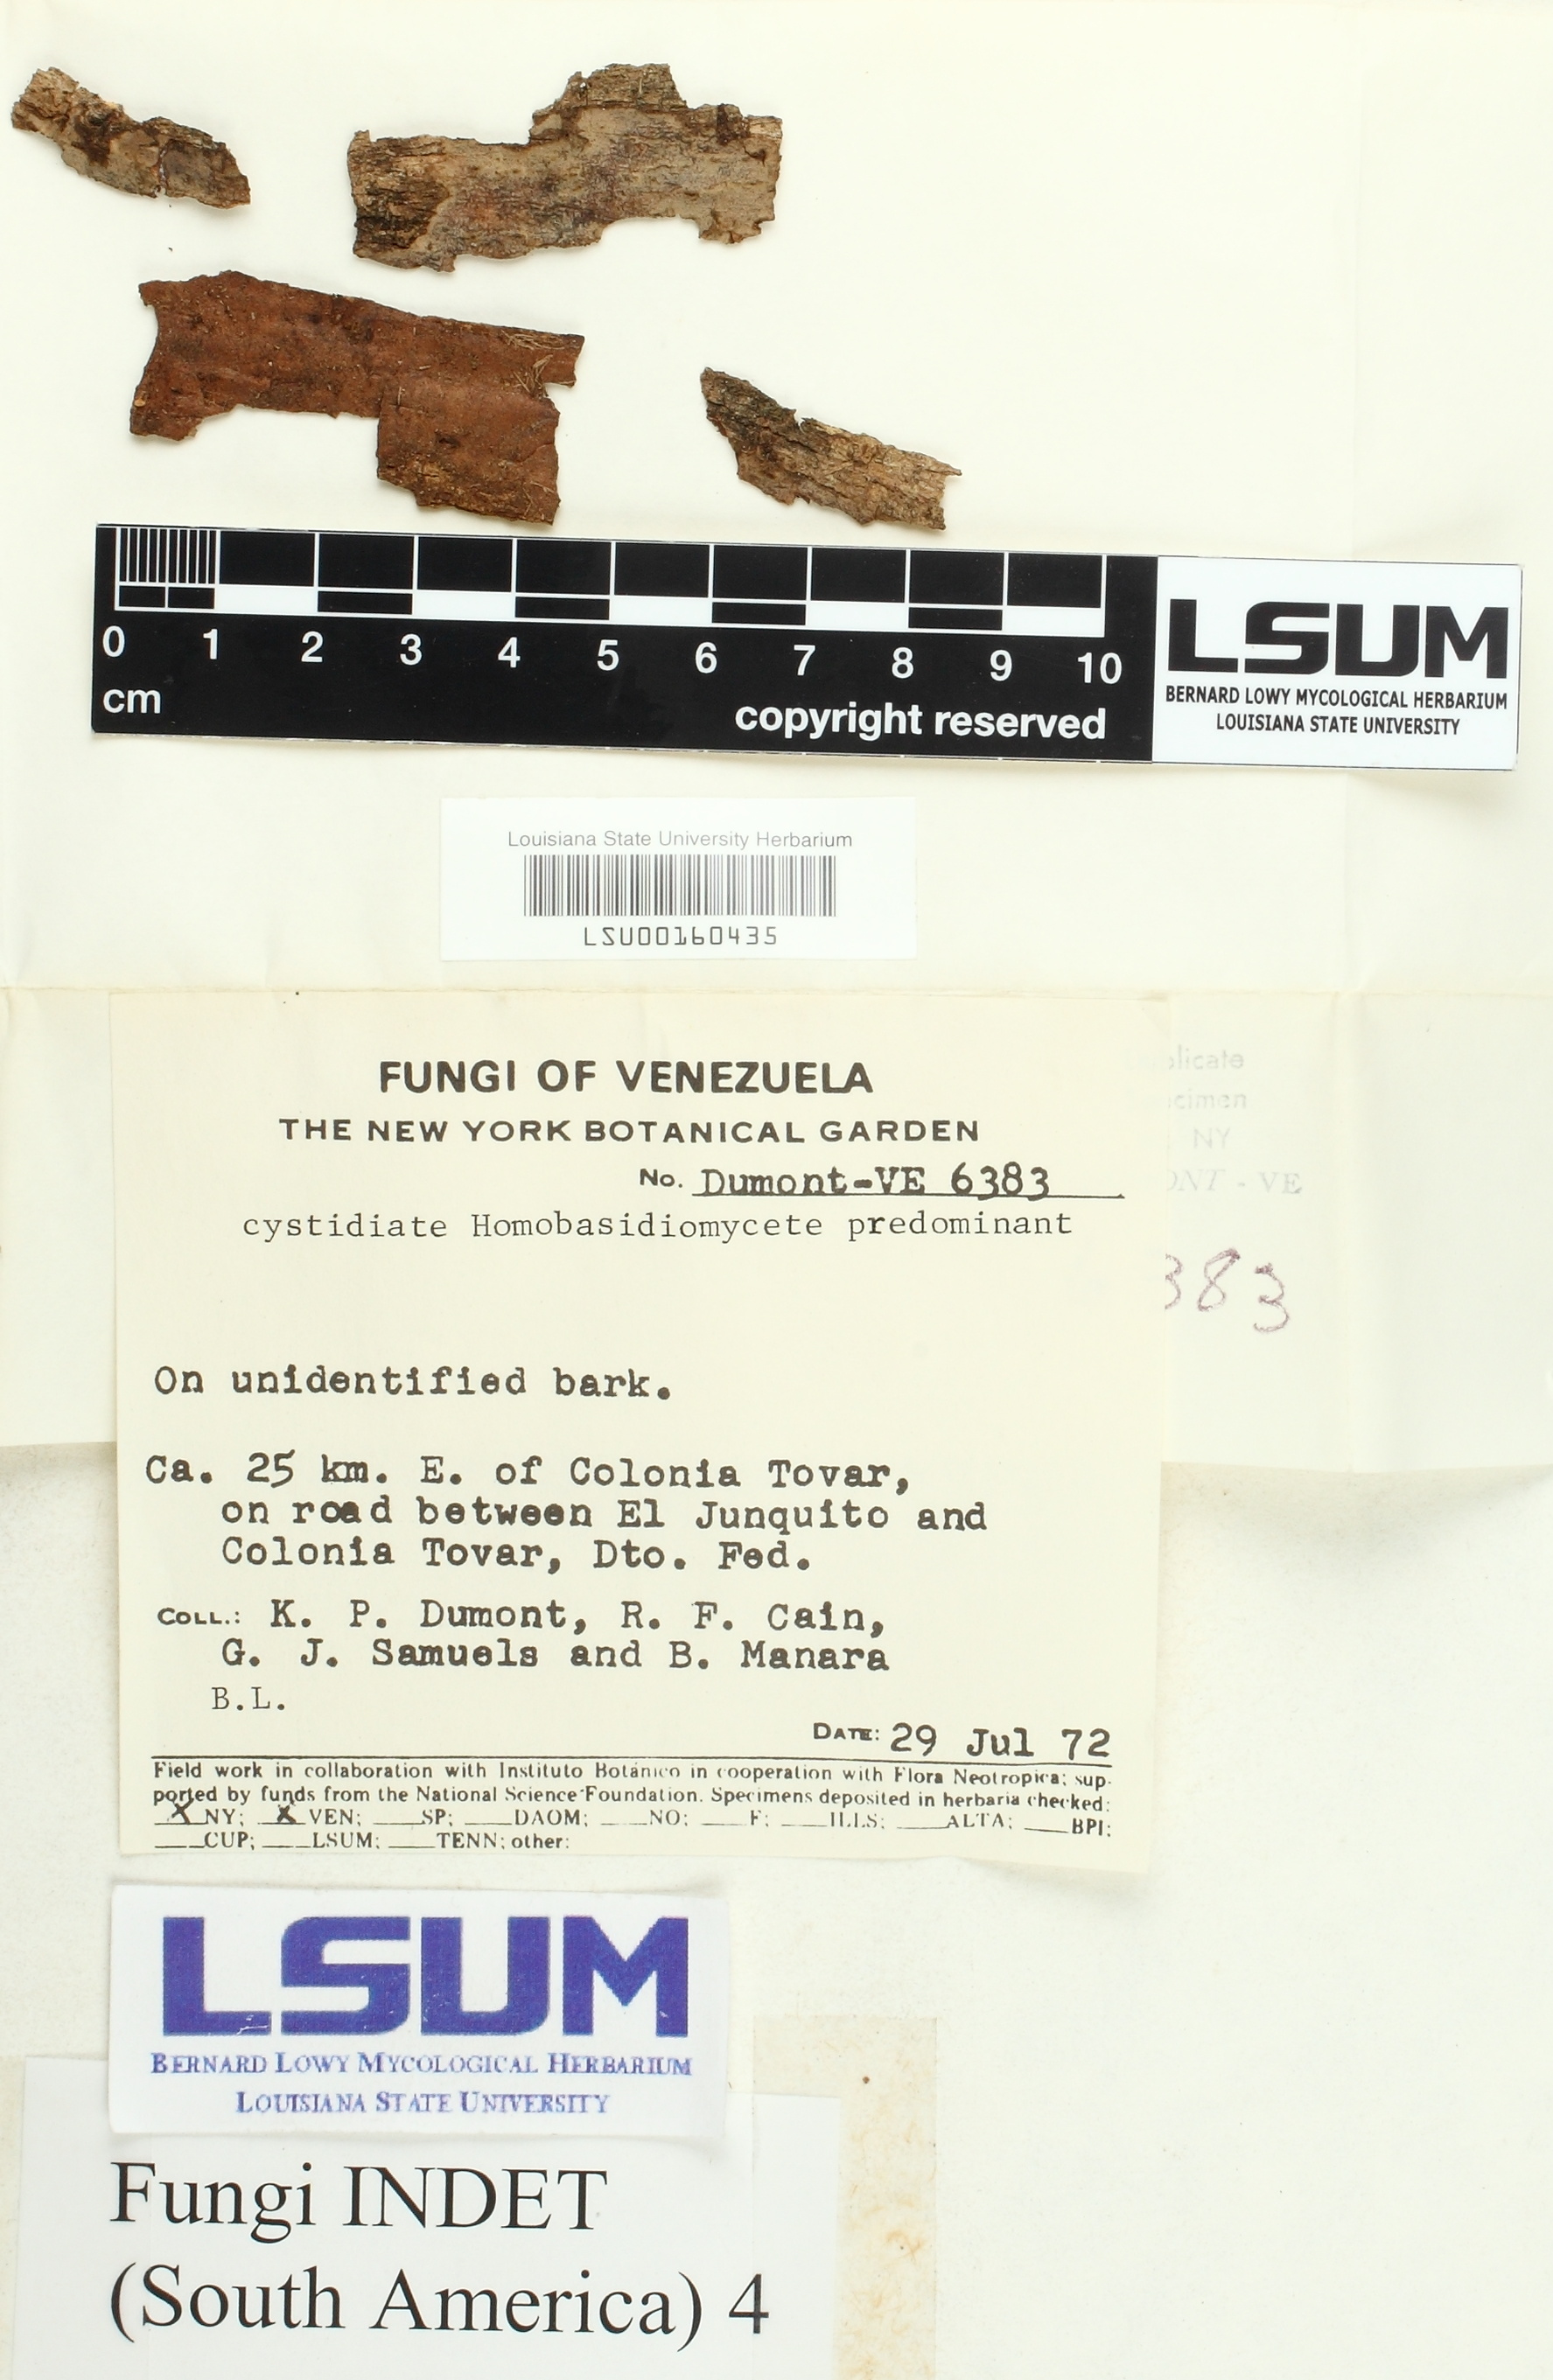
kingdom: Fungi
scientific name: Fungi
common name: Fungi
